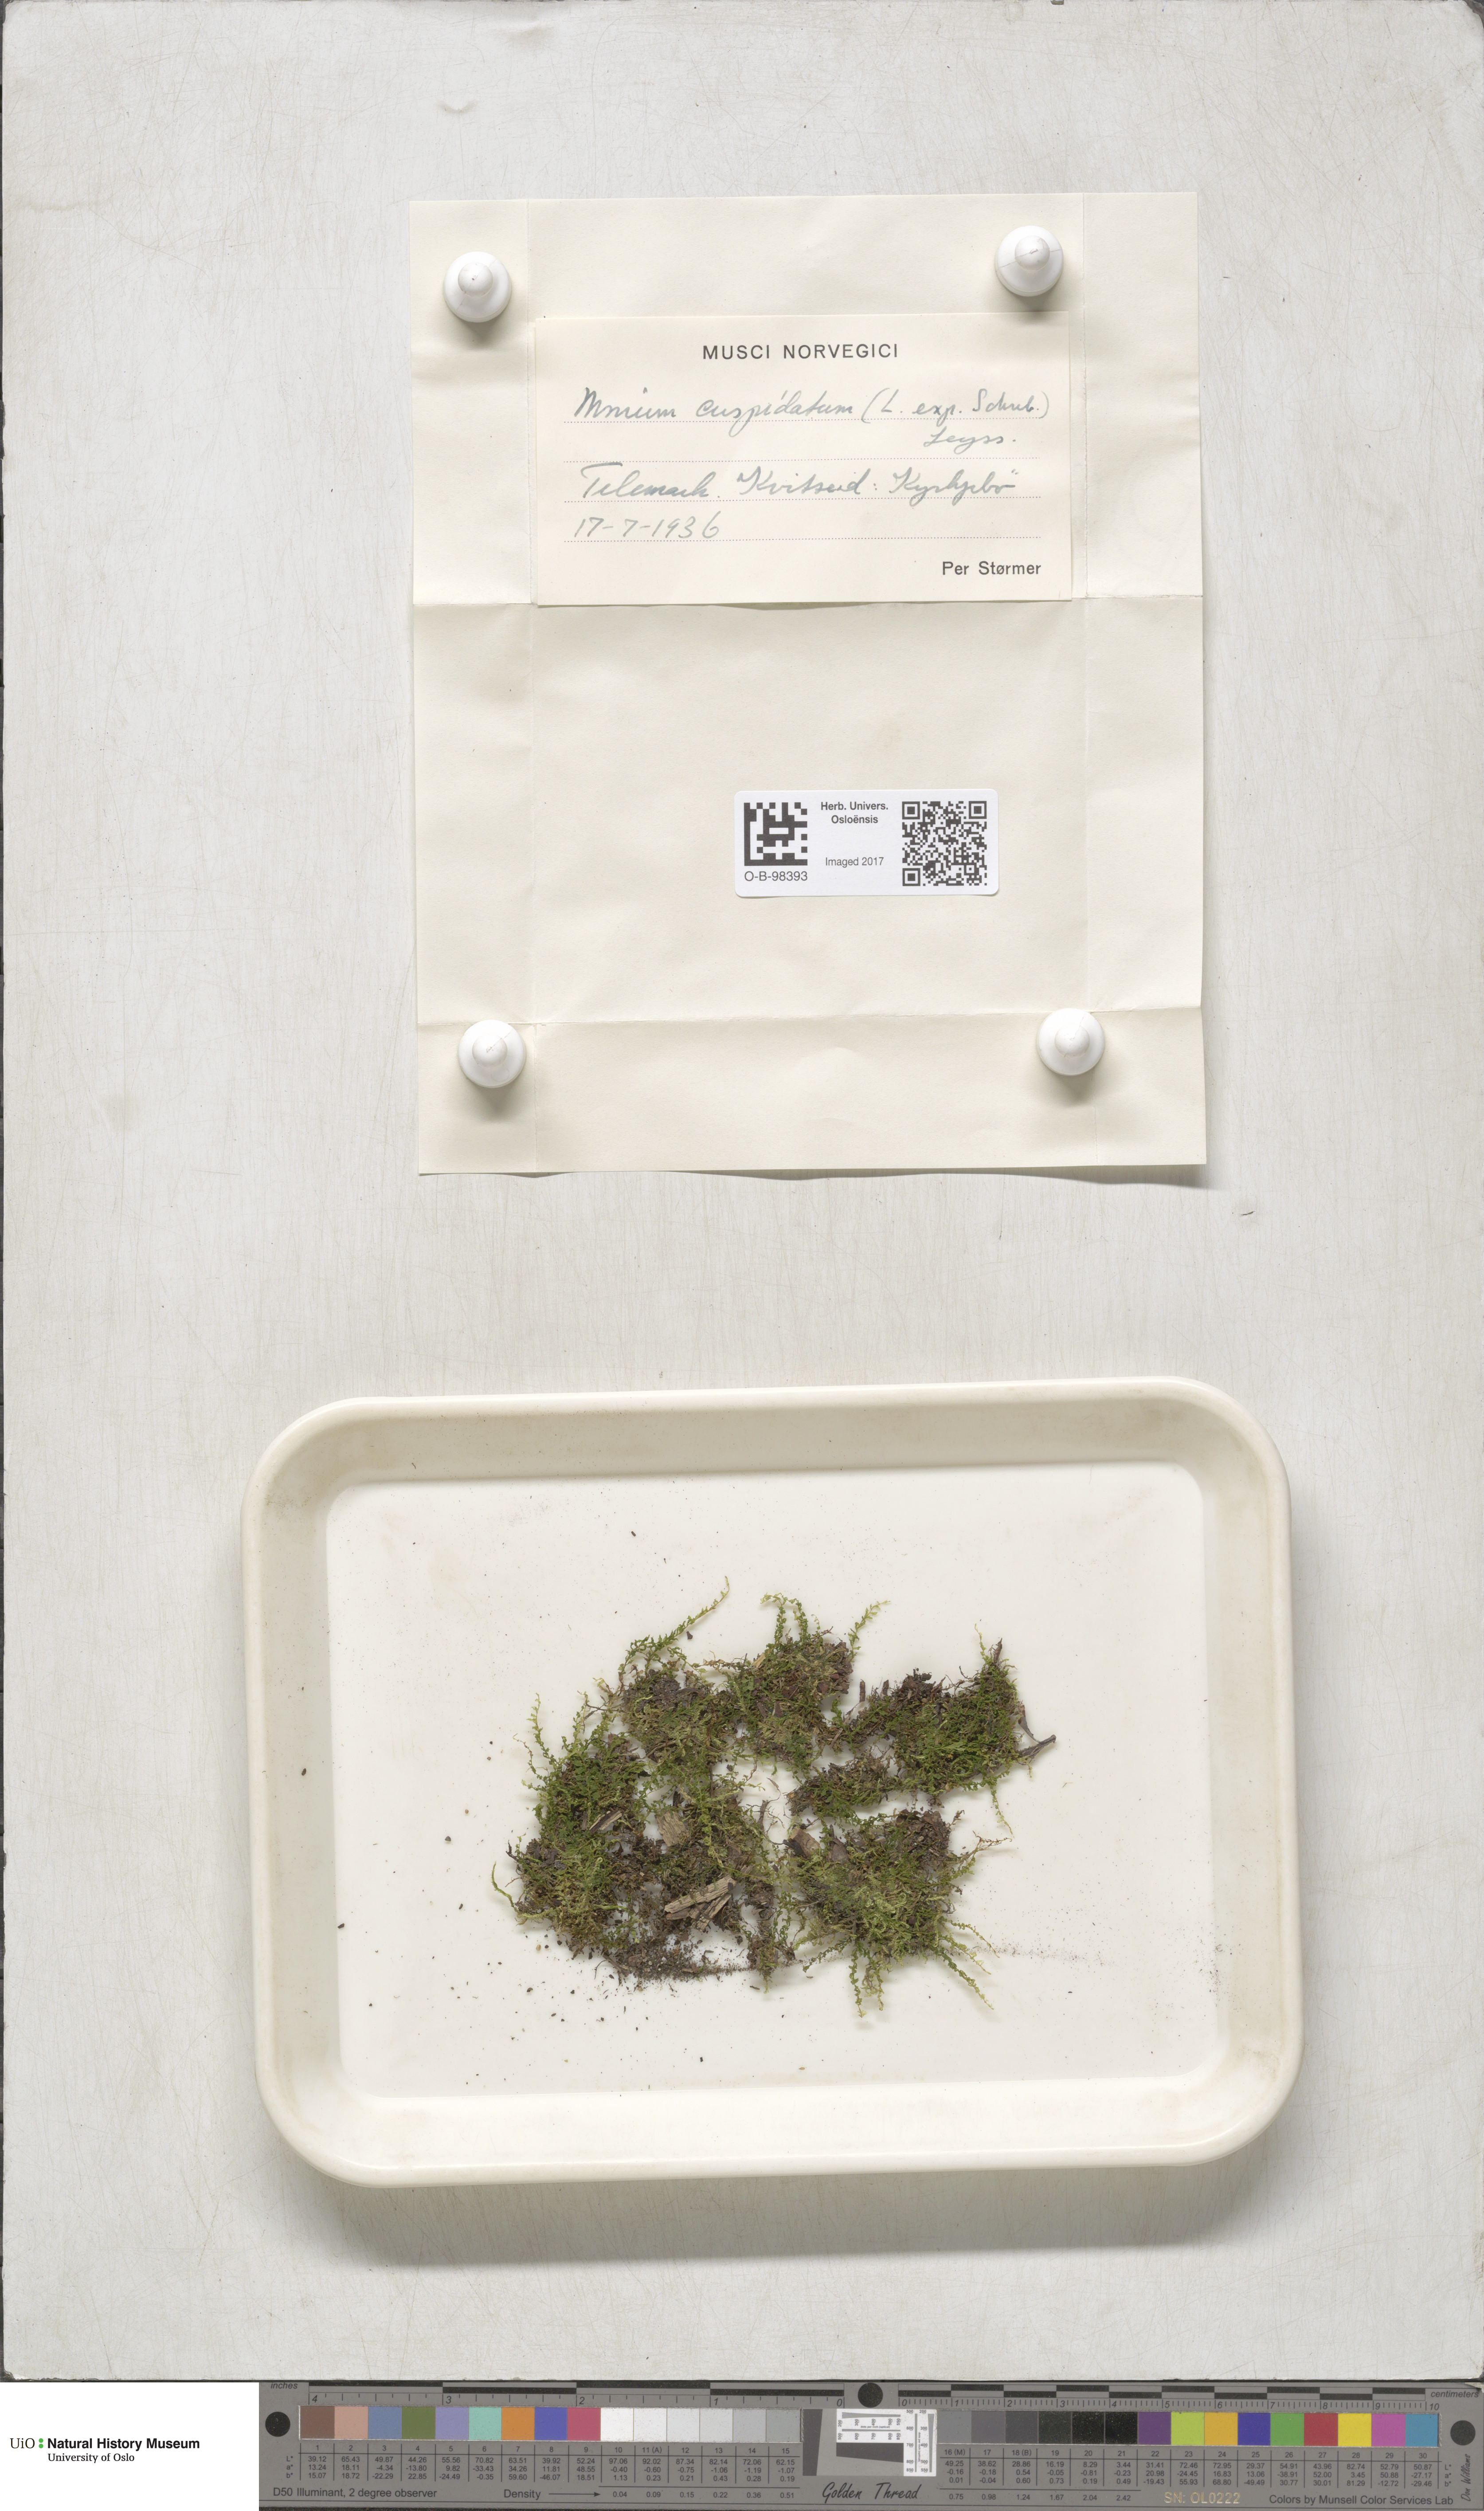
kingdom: Plantae
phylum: Bryophyta
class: Bryopsida
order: Bryales
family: Mniaceae
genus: Plagiomnium
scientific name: Plagiomnium cuspidatum
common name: Woodsy leafy moss
